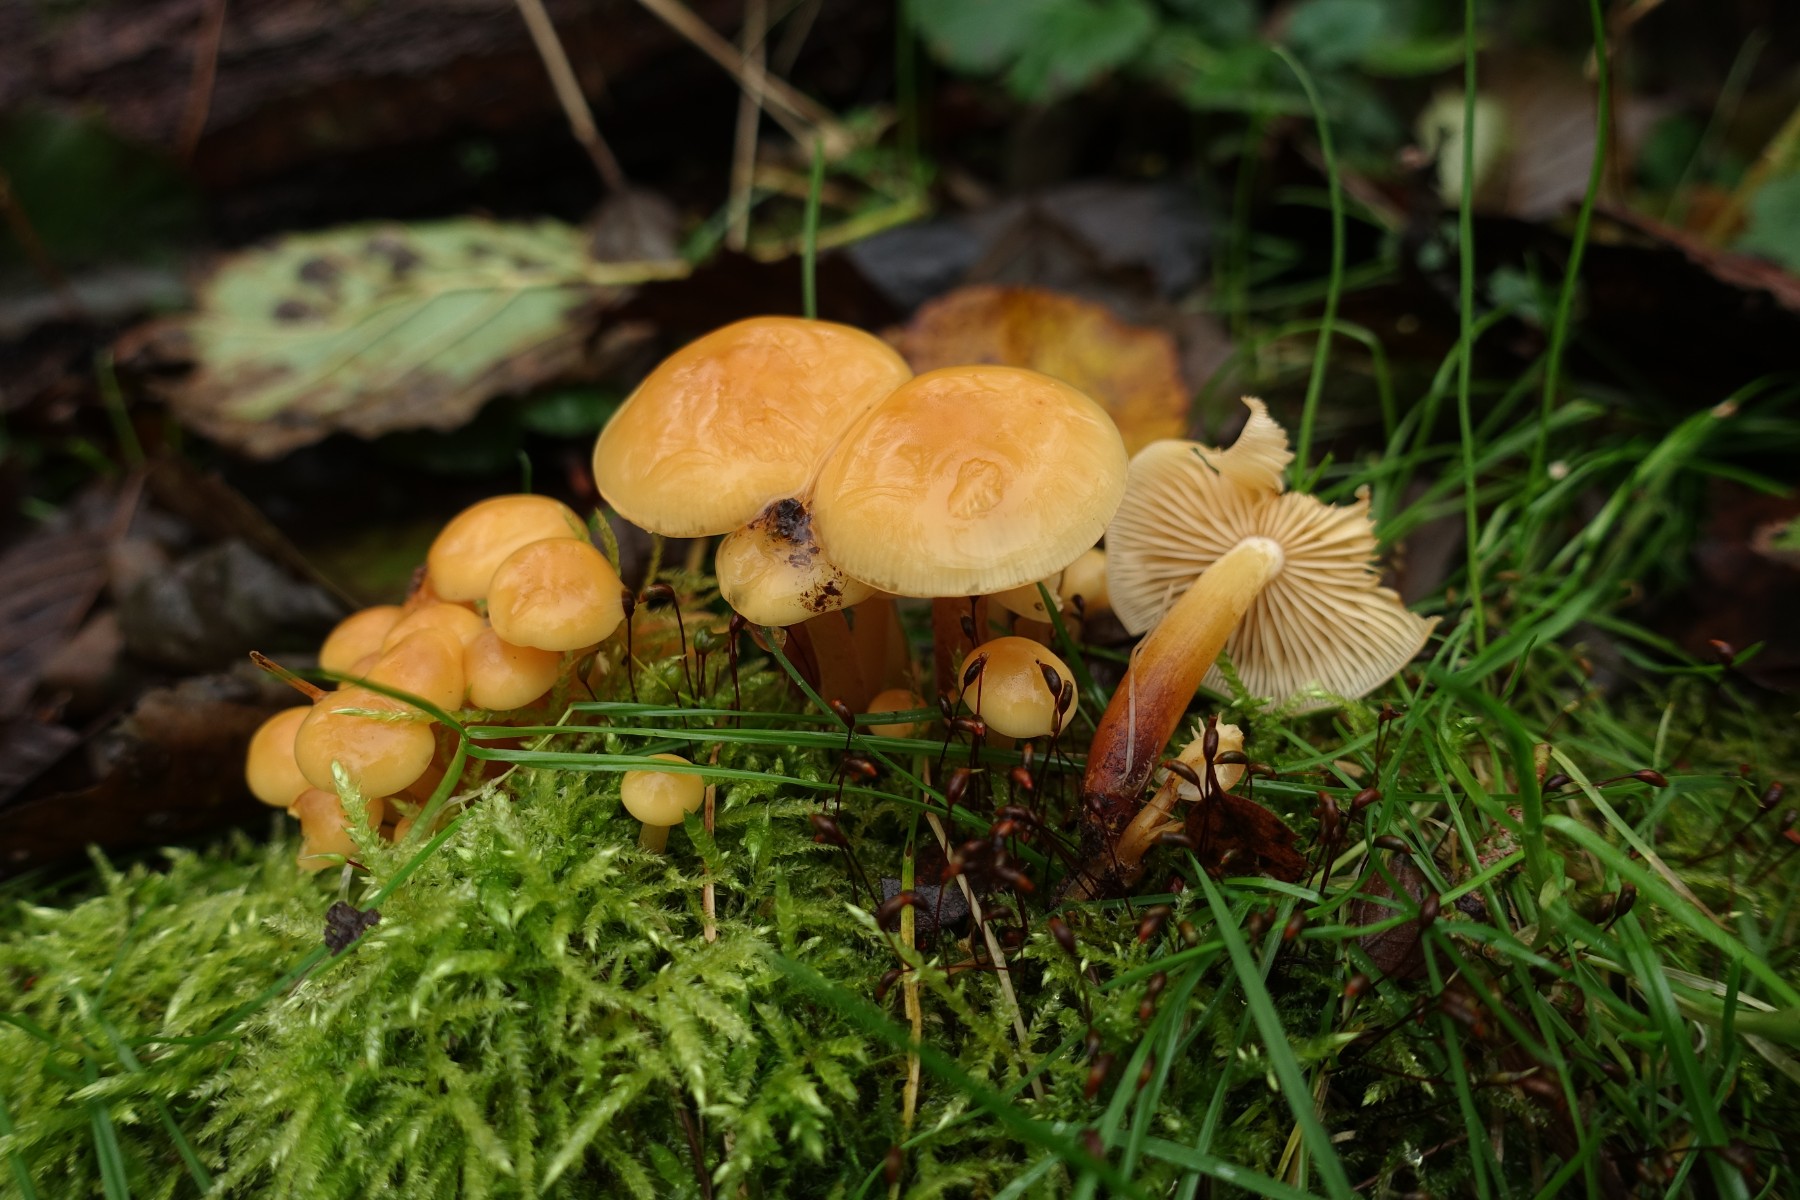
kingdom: Fungi
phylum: Basidiomycota
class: Agaricomycetes
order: Agaricales
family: Physalacriaceae
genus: Flammulina
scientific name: Flammulina elastica
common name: pile-fløjlsfod
